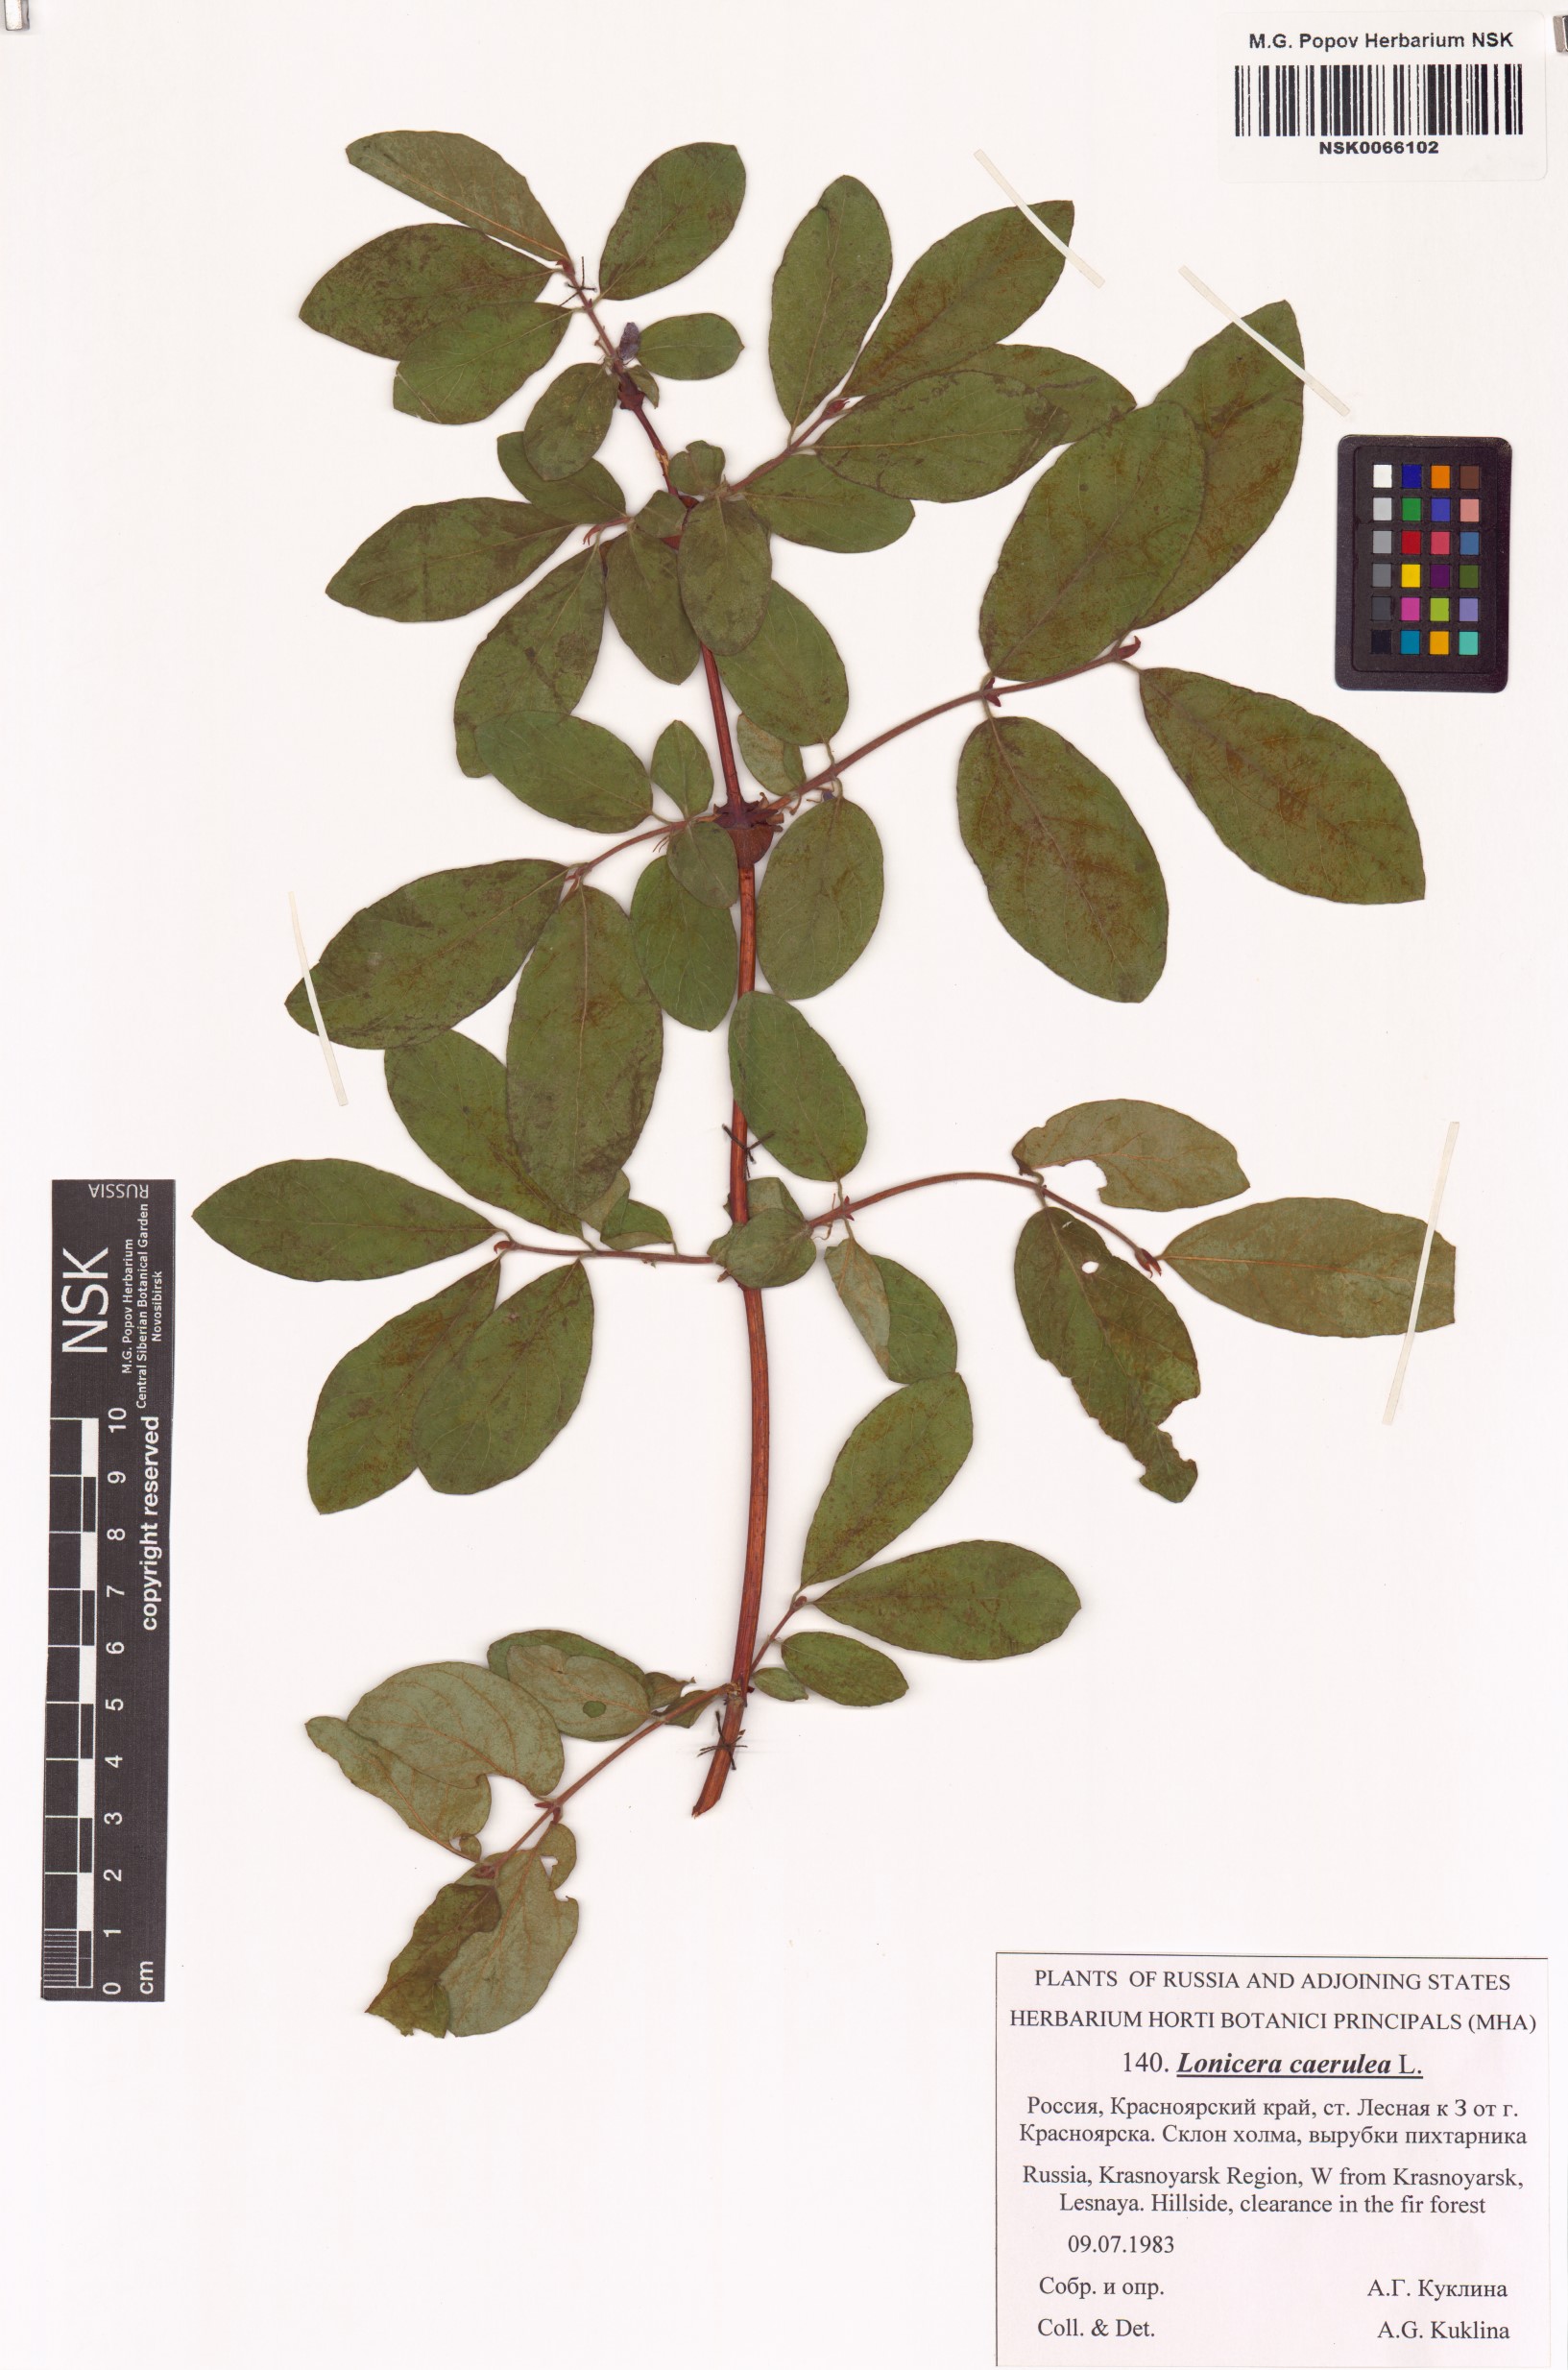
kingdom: Plantae
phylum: Tracheophyta
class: Magnoliopsida
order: Dipsacales
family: Caprifoliaceae
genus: Lonicera
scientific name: Lonicera caerulea
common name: Blue honeysuckle
